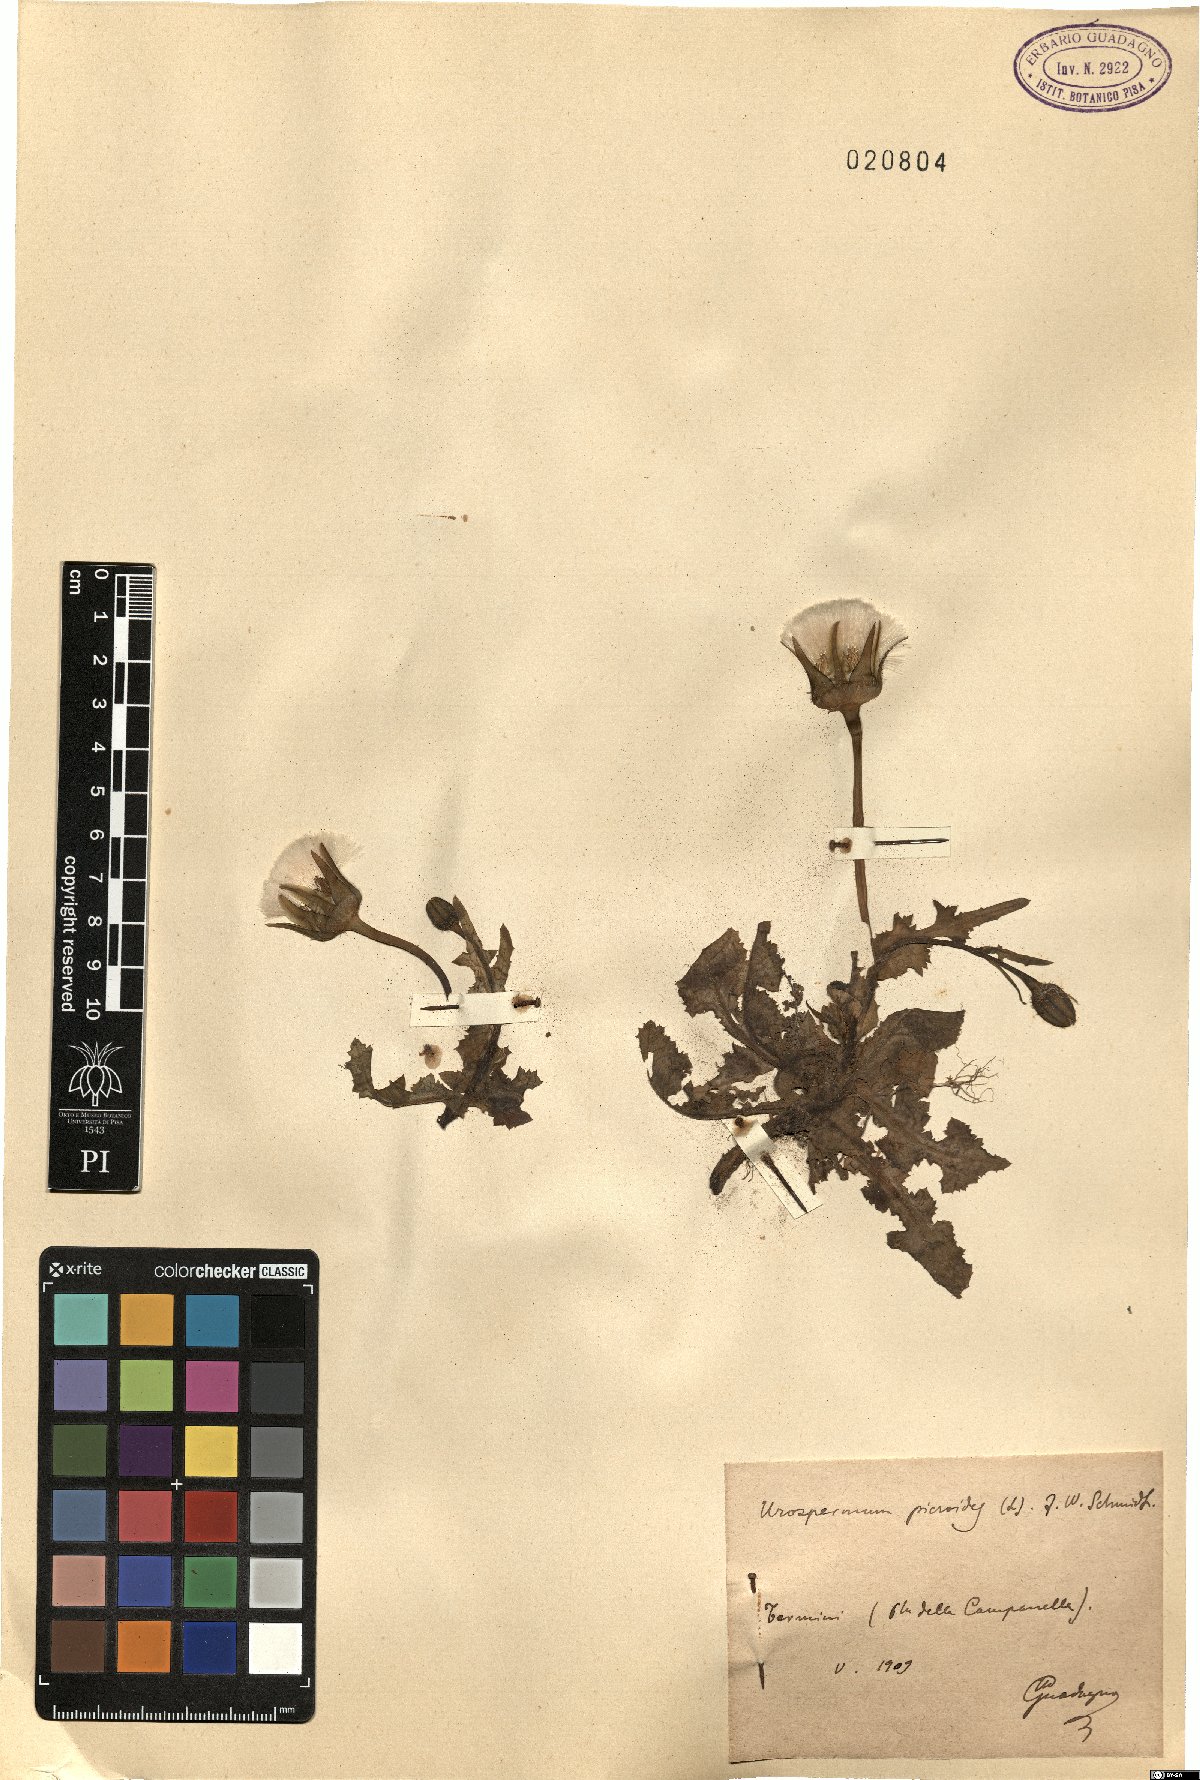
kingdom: Plantae
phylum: Tracheophyta
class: Magnoliopsida
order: Asterales
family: Asteraceae
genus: Urospermum
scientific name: Urospermum picroides
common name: False hawkbit
